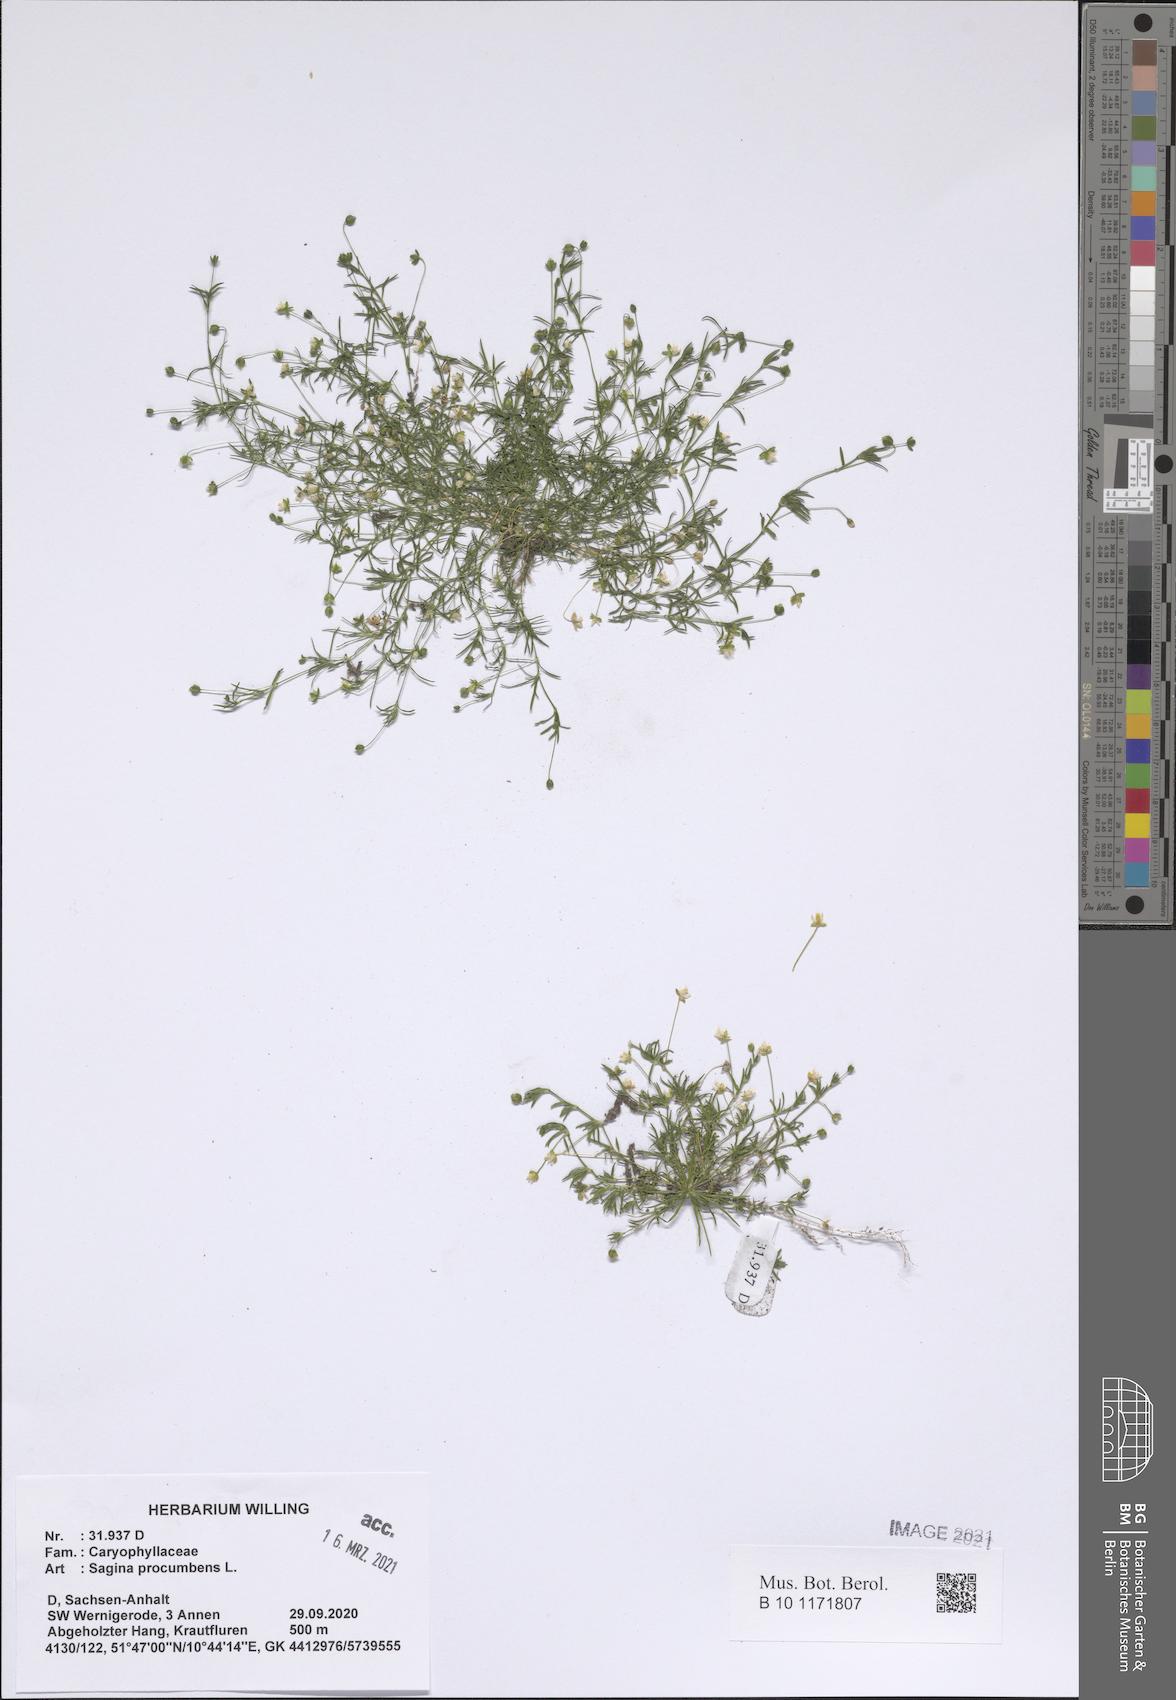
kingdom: Plantae
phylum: Tracheophyta
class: Magnoliopsida
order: Caryophyllales
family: Caryophyllaceae
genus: Sagina
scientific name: Sagina procumbens
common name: Procumbent pearlwort
